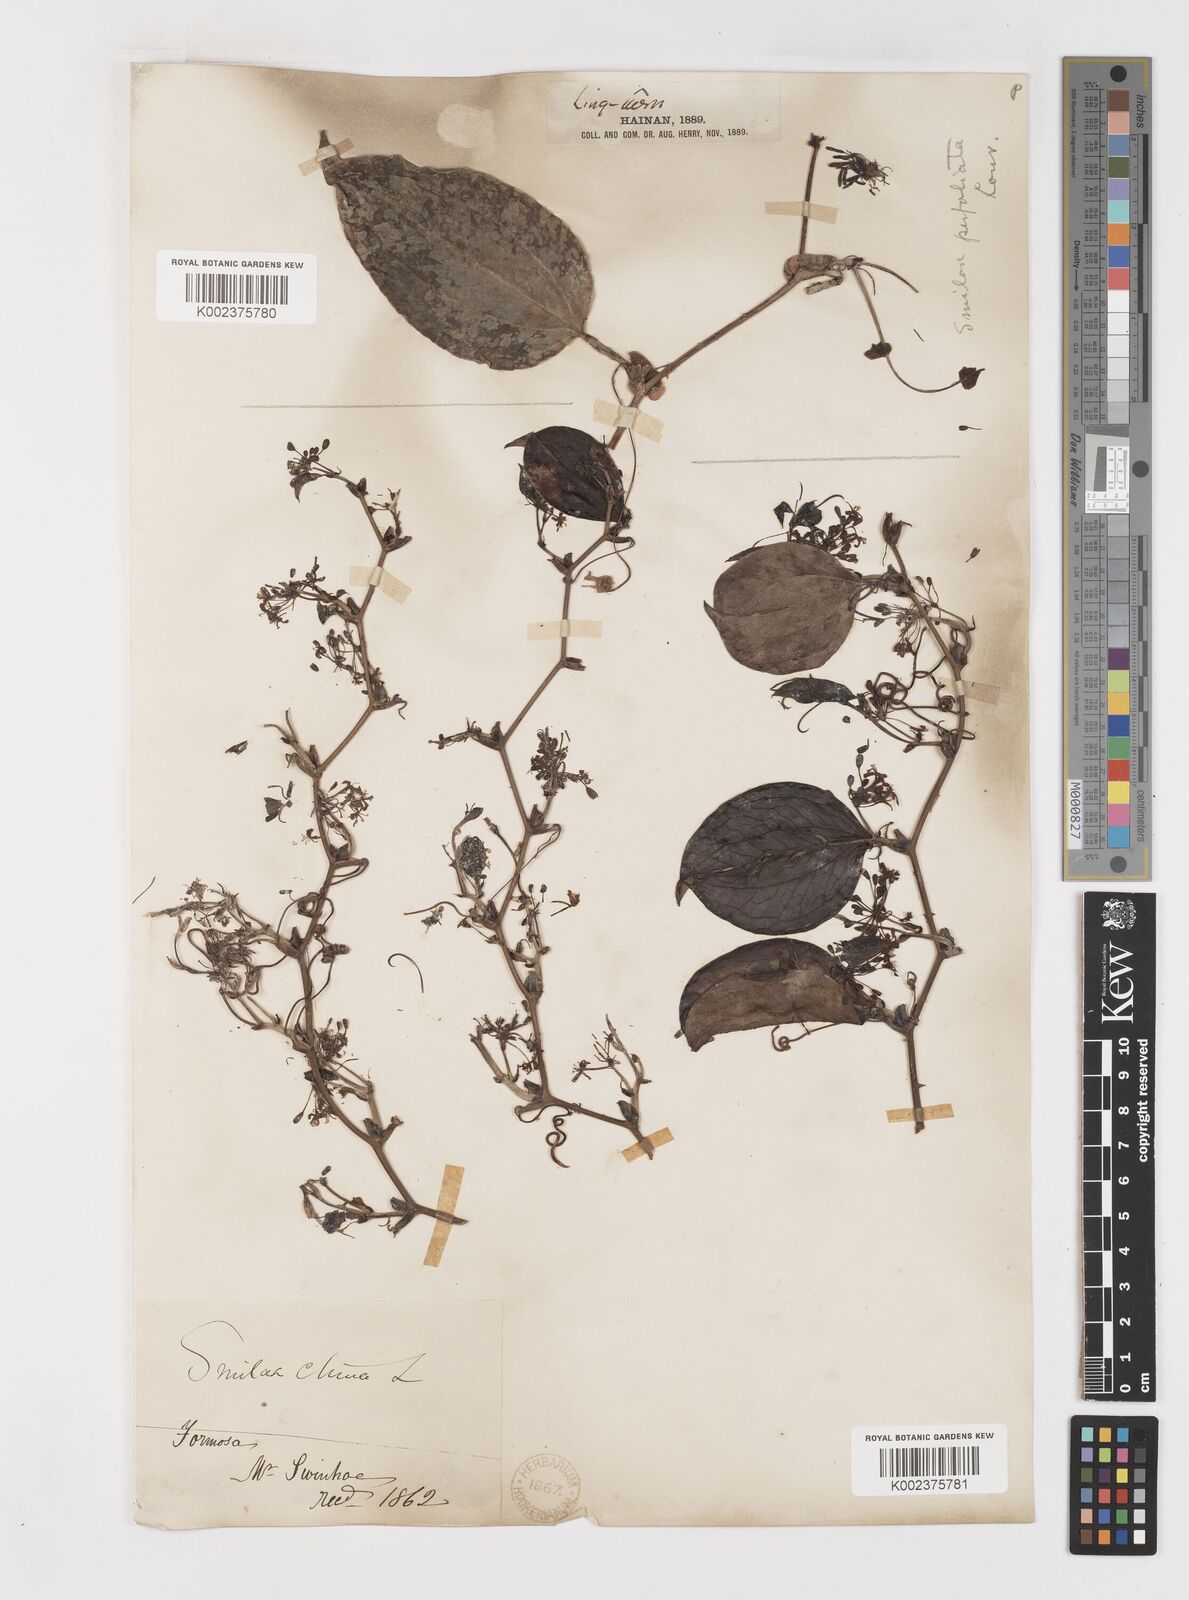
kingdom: Plantae
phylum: Tracheophyta
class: Liliopsida
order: Liliales
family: Smilacaceae
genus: Smilax
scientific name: Smilax china
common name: Chinaroot
